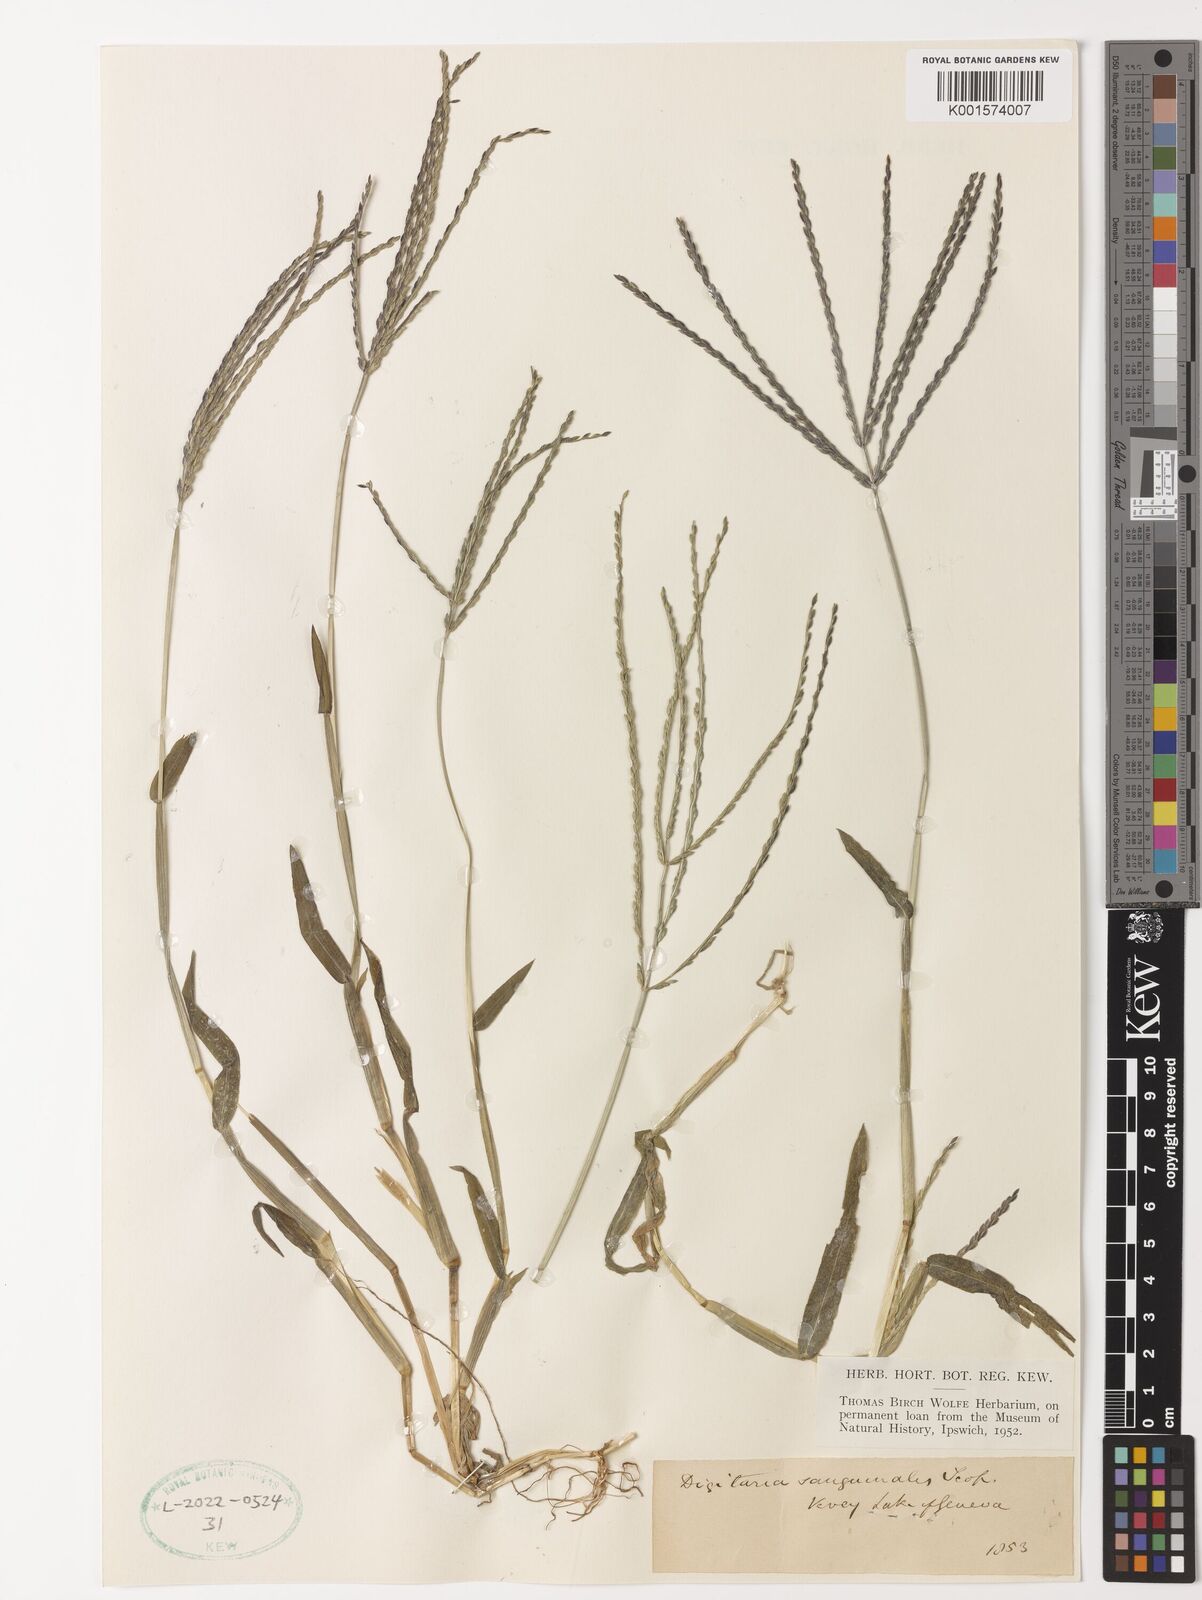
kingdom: Plantae
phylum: Tracheophyta
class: Liliopsida
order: Poales
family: Poaceae
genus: Digitaria
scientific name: Digitaria sanguinalis
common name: Hairy crabgrass
